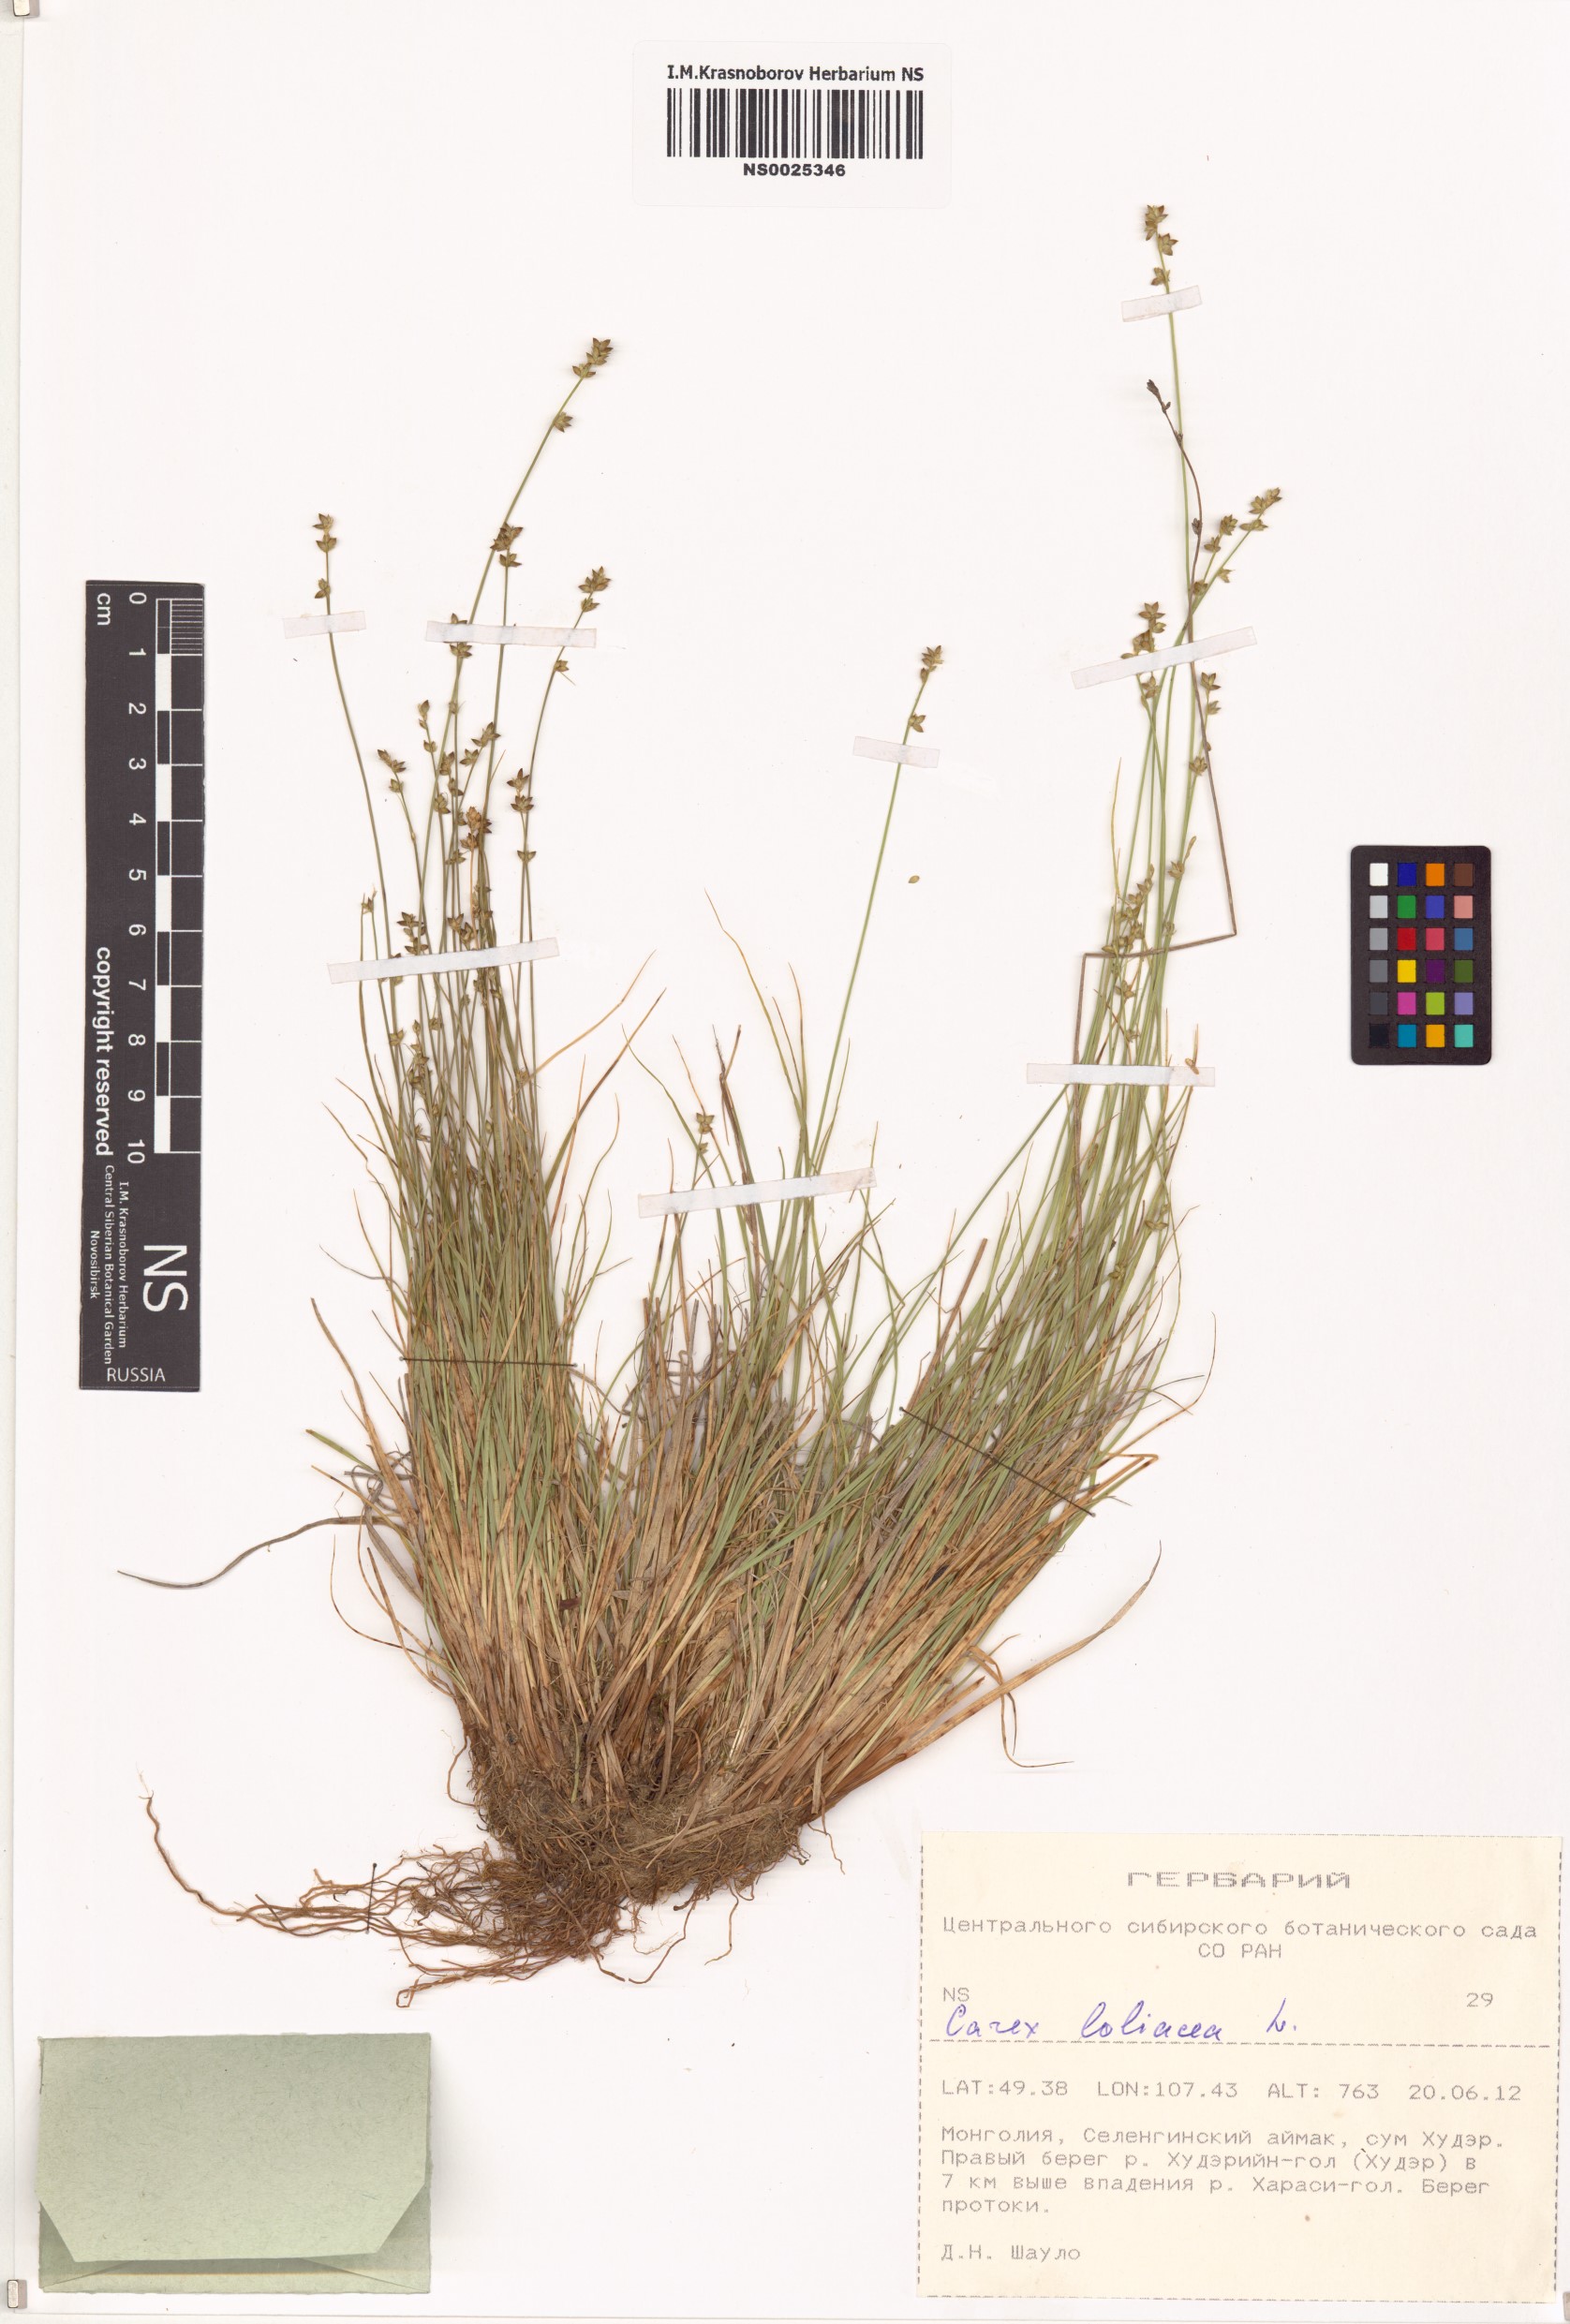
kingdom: Plantae
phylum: Tracheophyta
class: Liliopsida
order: Poales
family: Cyperaceae
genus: Carex
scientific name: Carex loliacea
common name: Ryegrass sedge
